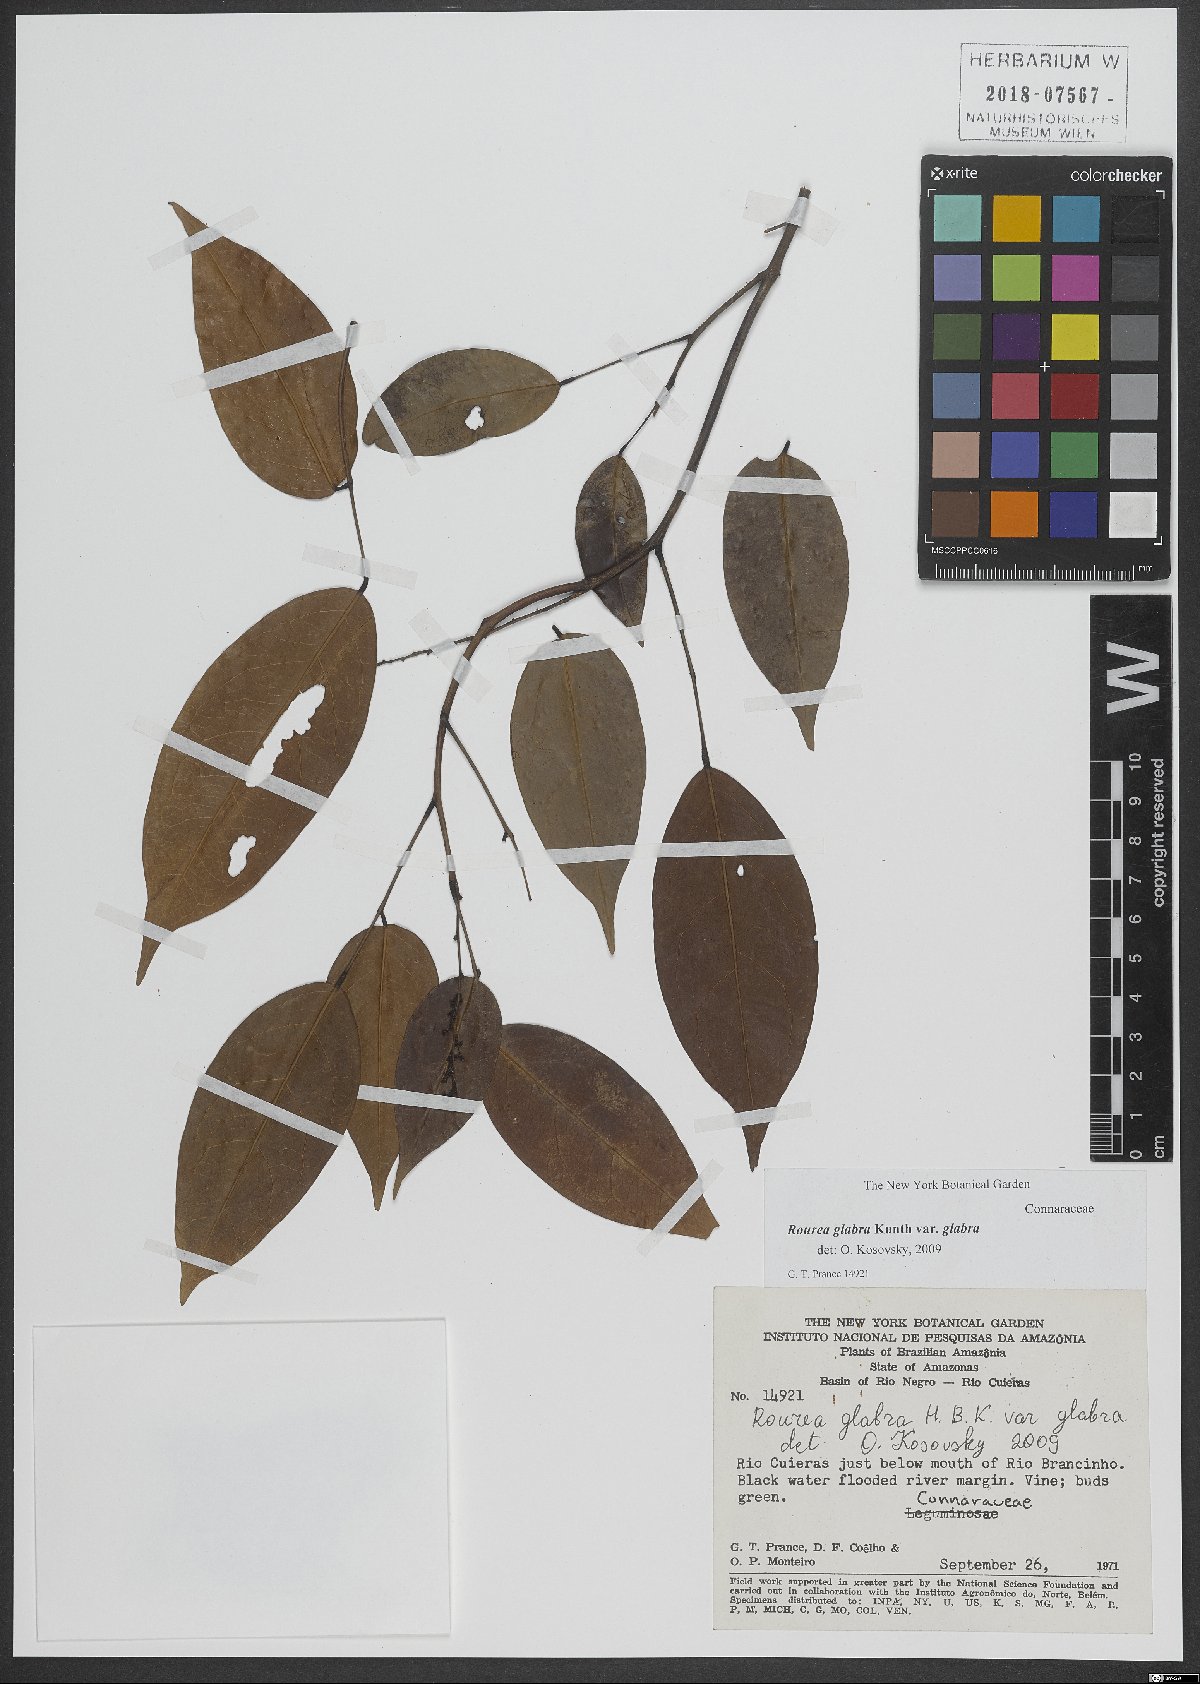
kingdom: Plantae
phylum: Tracheophyta
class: Magnoliopsida
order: Oxalidales
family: Connaraceae
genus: Rourea
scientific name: Rourea glabra
